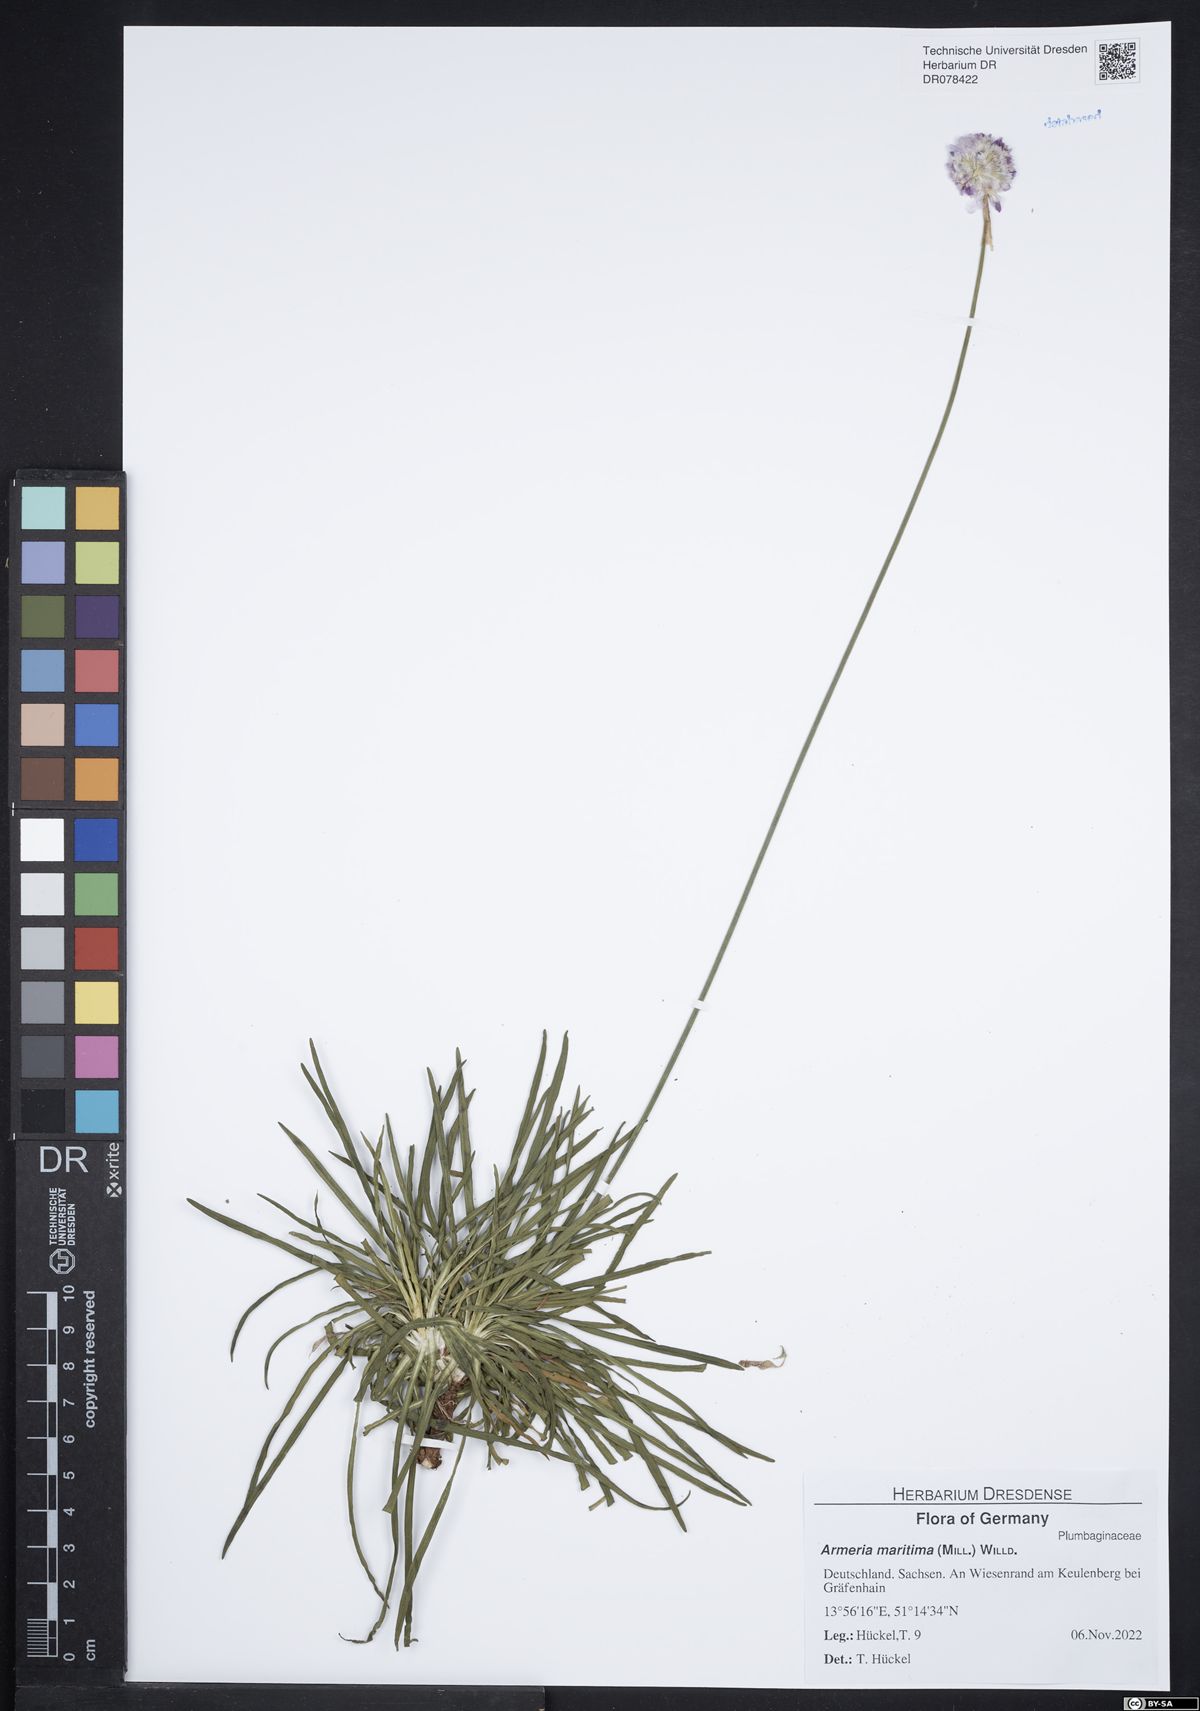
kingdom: Plantae
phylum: Tracheophyta
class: Magnoliopsida
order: Caryophyllales
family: Plumbaginaceae
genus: Armeria
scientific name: Armeria maritima
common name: Thrift
